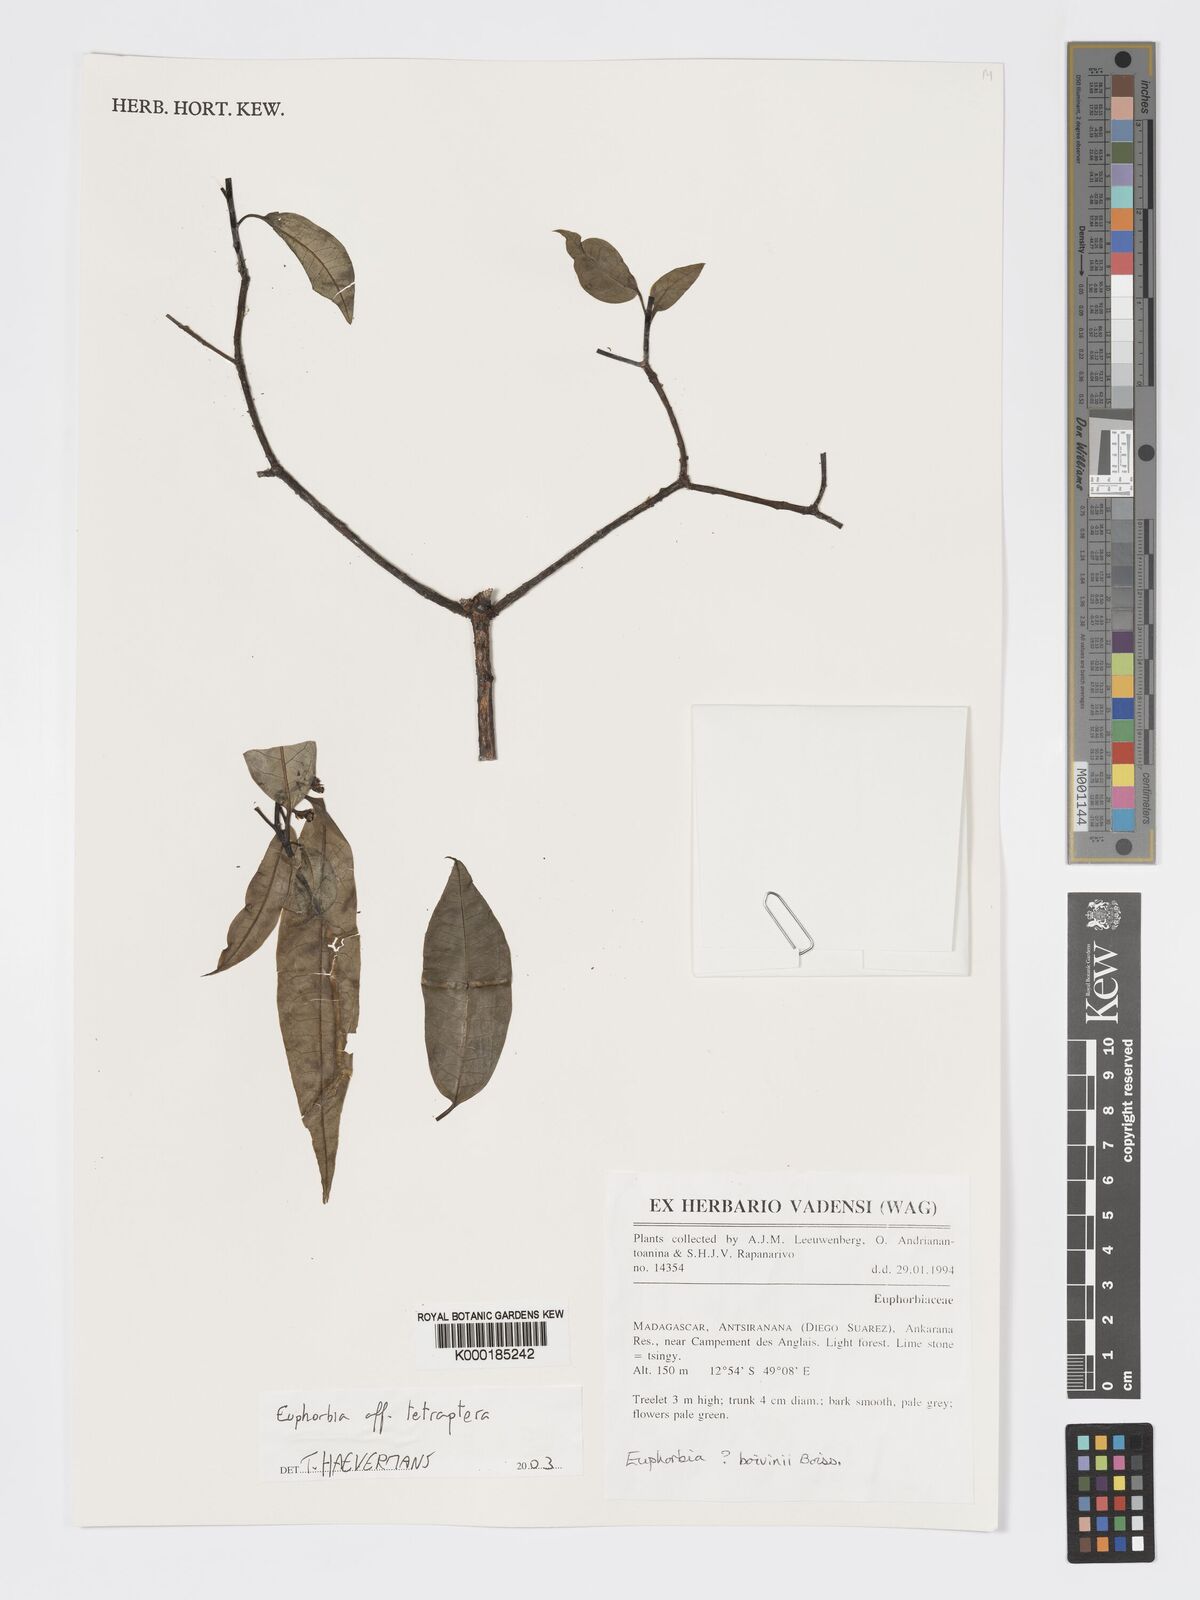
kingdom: Plantae
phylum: Tracheophyta
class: Magnoliopsida
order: Malpighiales
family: Euphorbiaceae
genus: Euphorbia
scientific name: Euphorbia tetraptera
